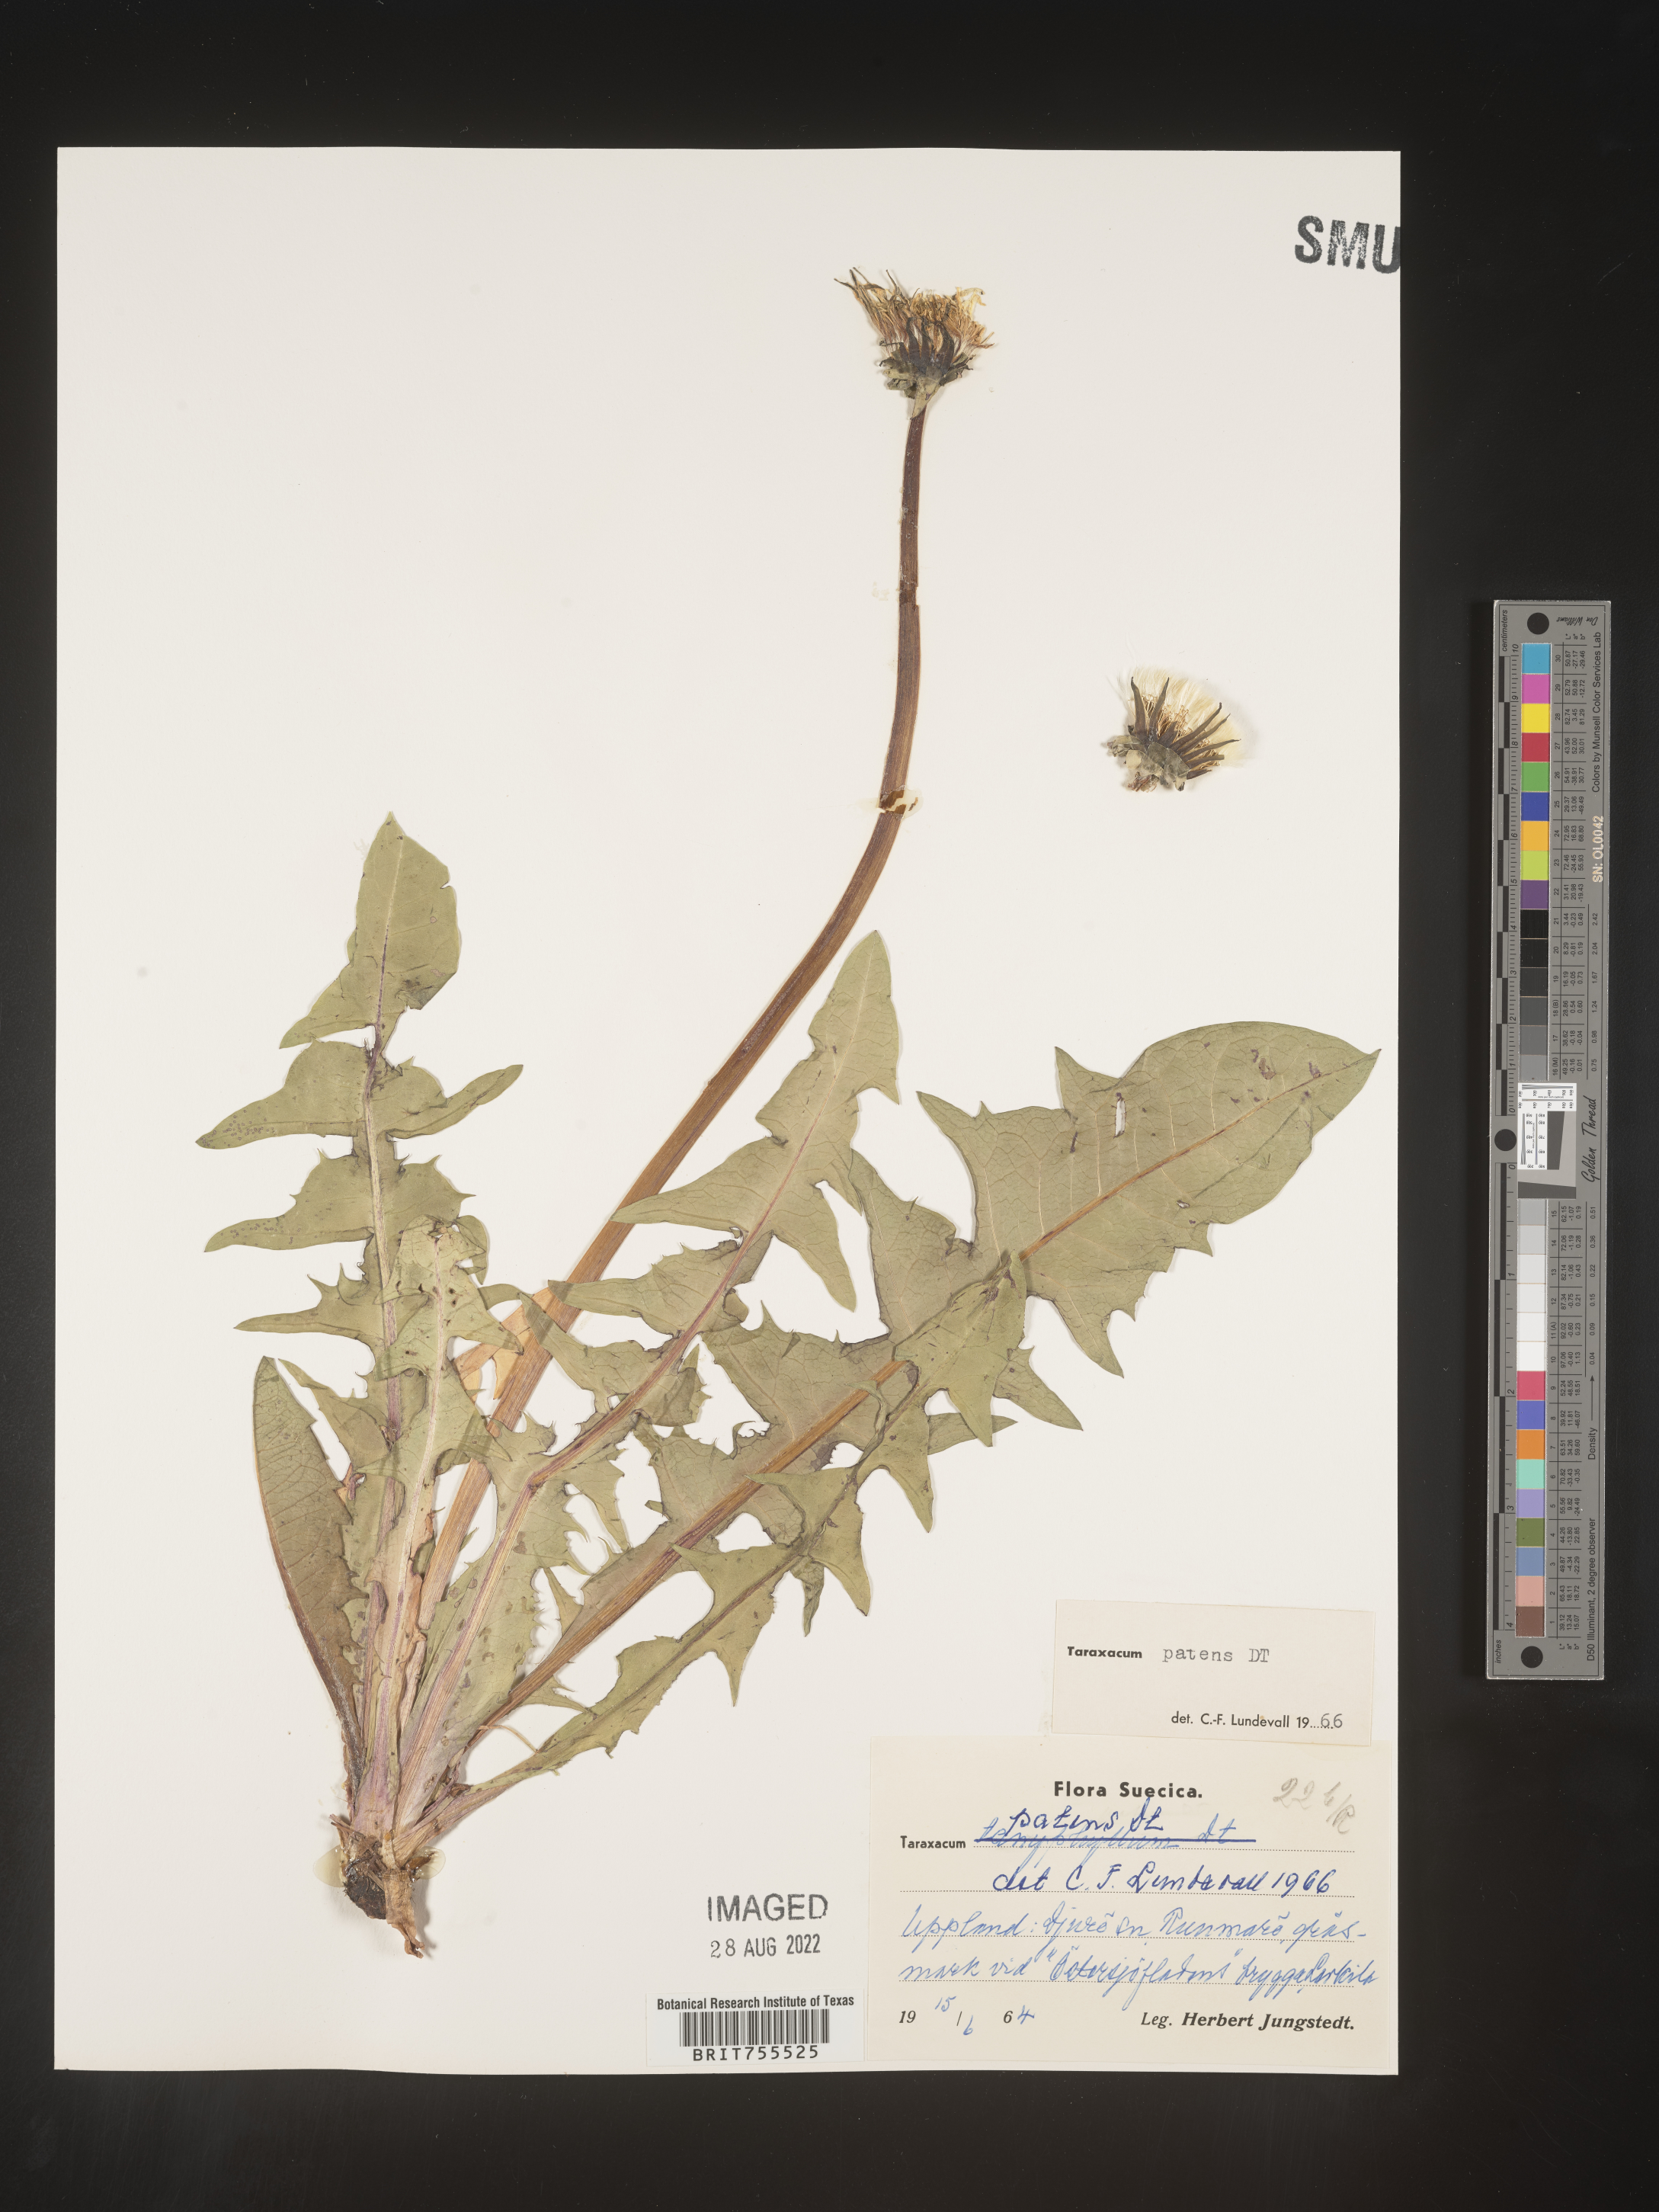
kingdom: Plantae
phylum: Tracheophyta
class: Magnoliopsida
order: Asterales
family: Asteraceae
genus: Taraxacum
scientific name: Taraxacum
